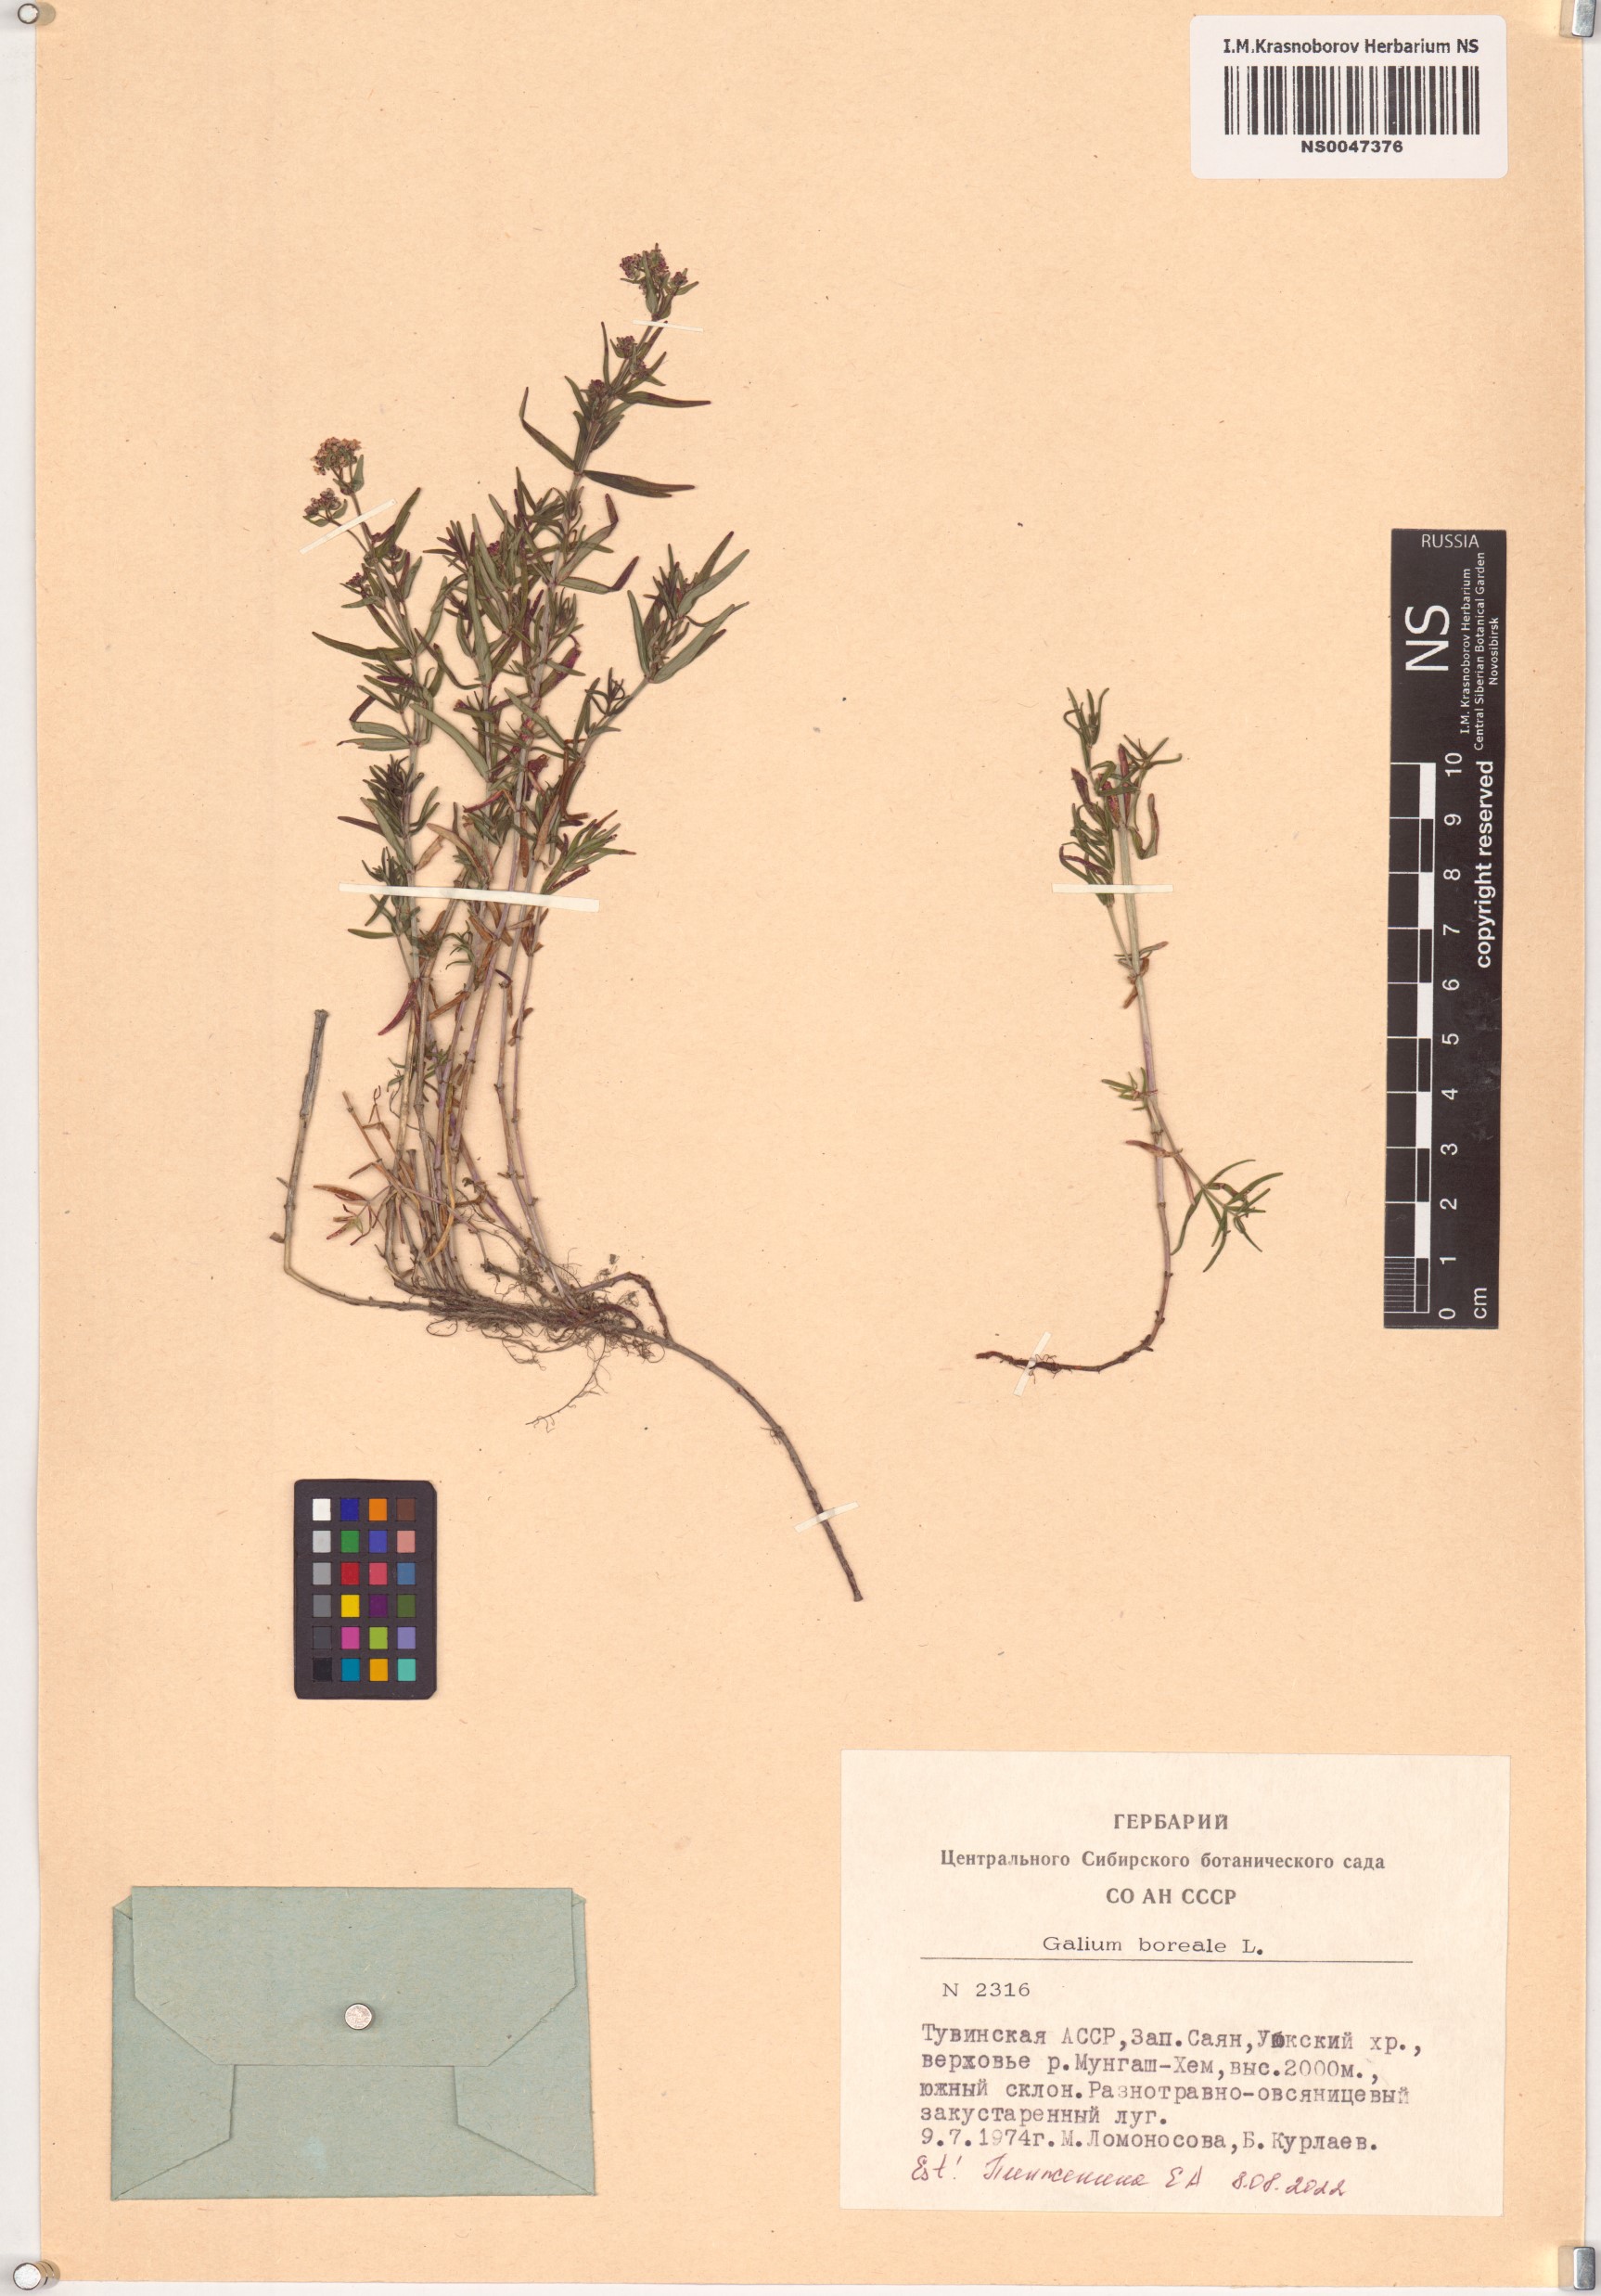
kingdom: Plantae
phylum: Tracheophyta
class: Magnoliopsida
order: Gentianales
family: Rubiaceae
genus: Galium
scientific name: Galium boreale
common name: Northern bedstraw
